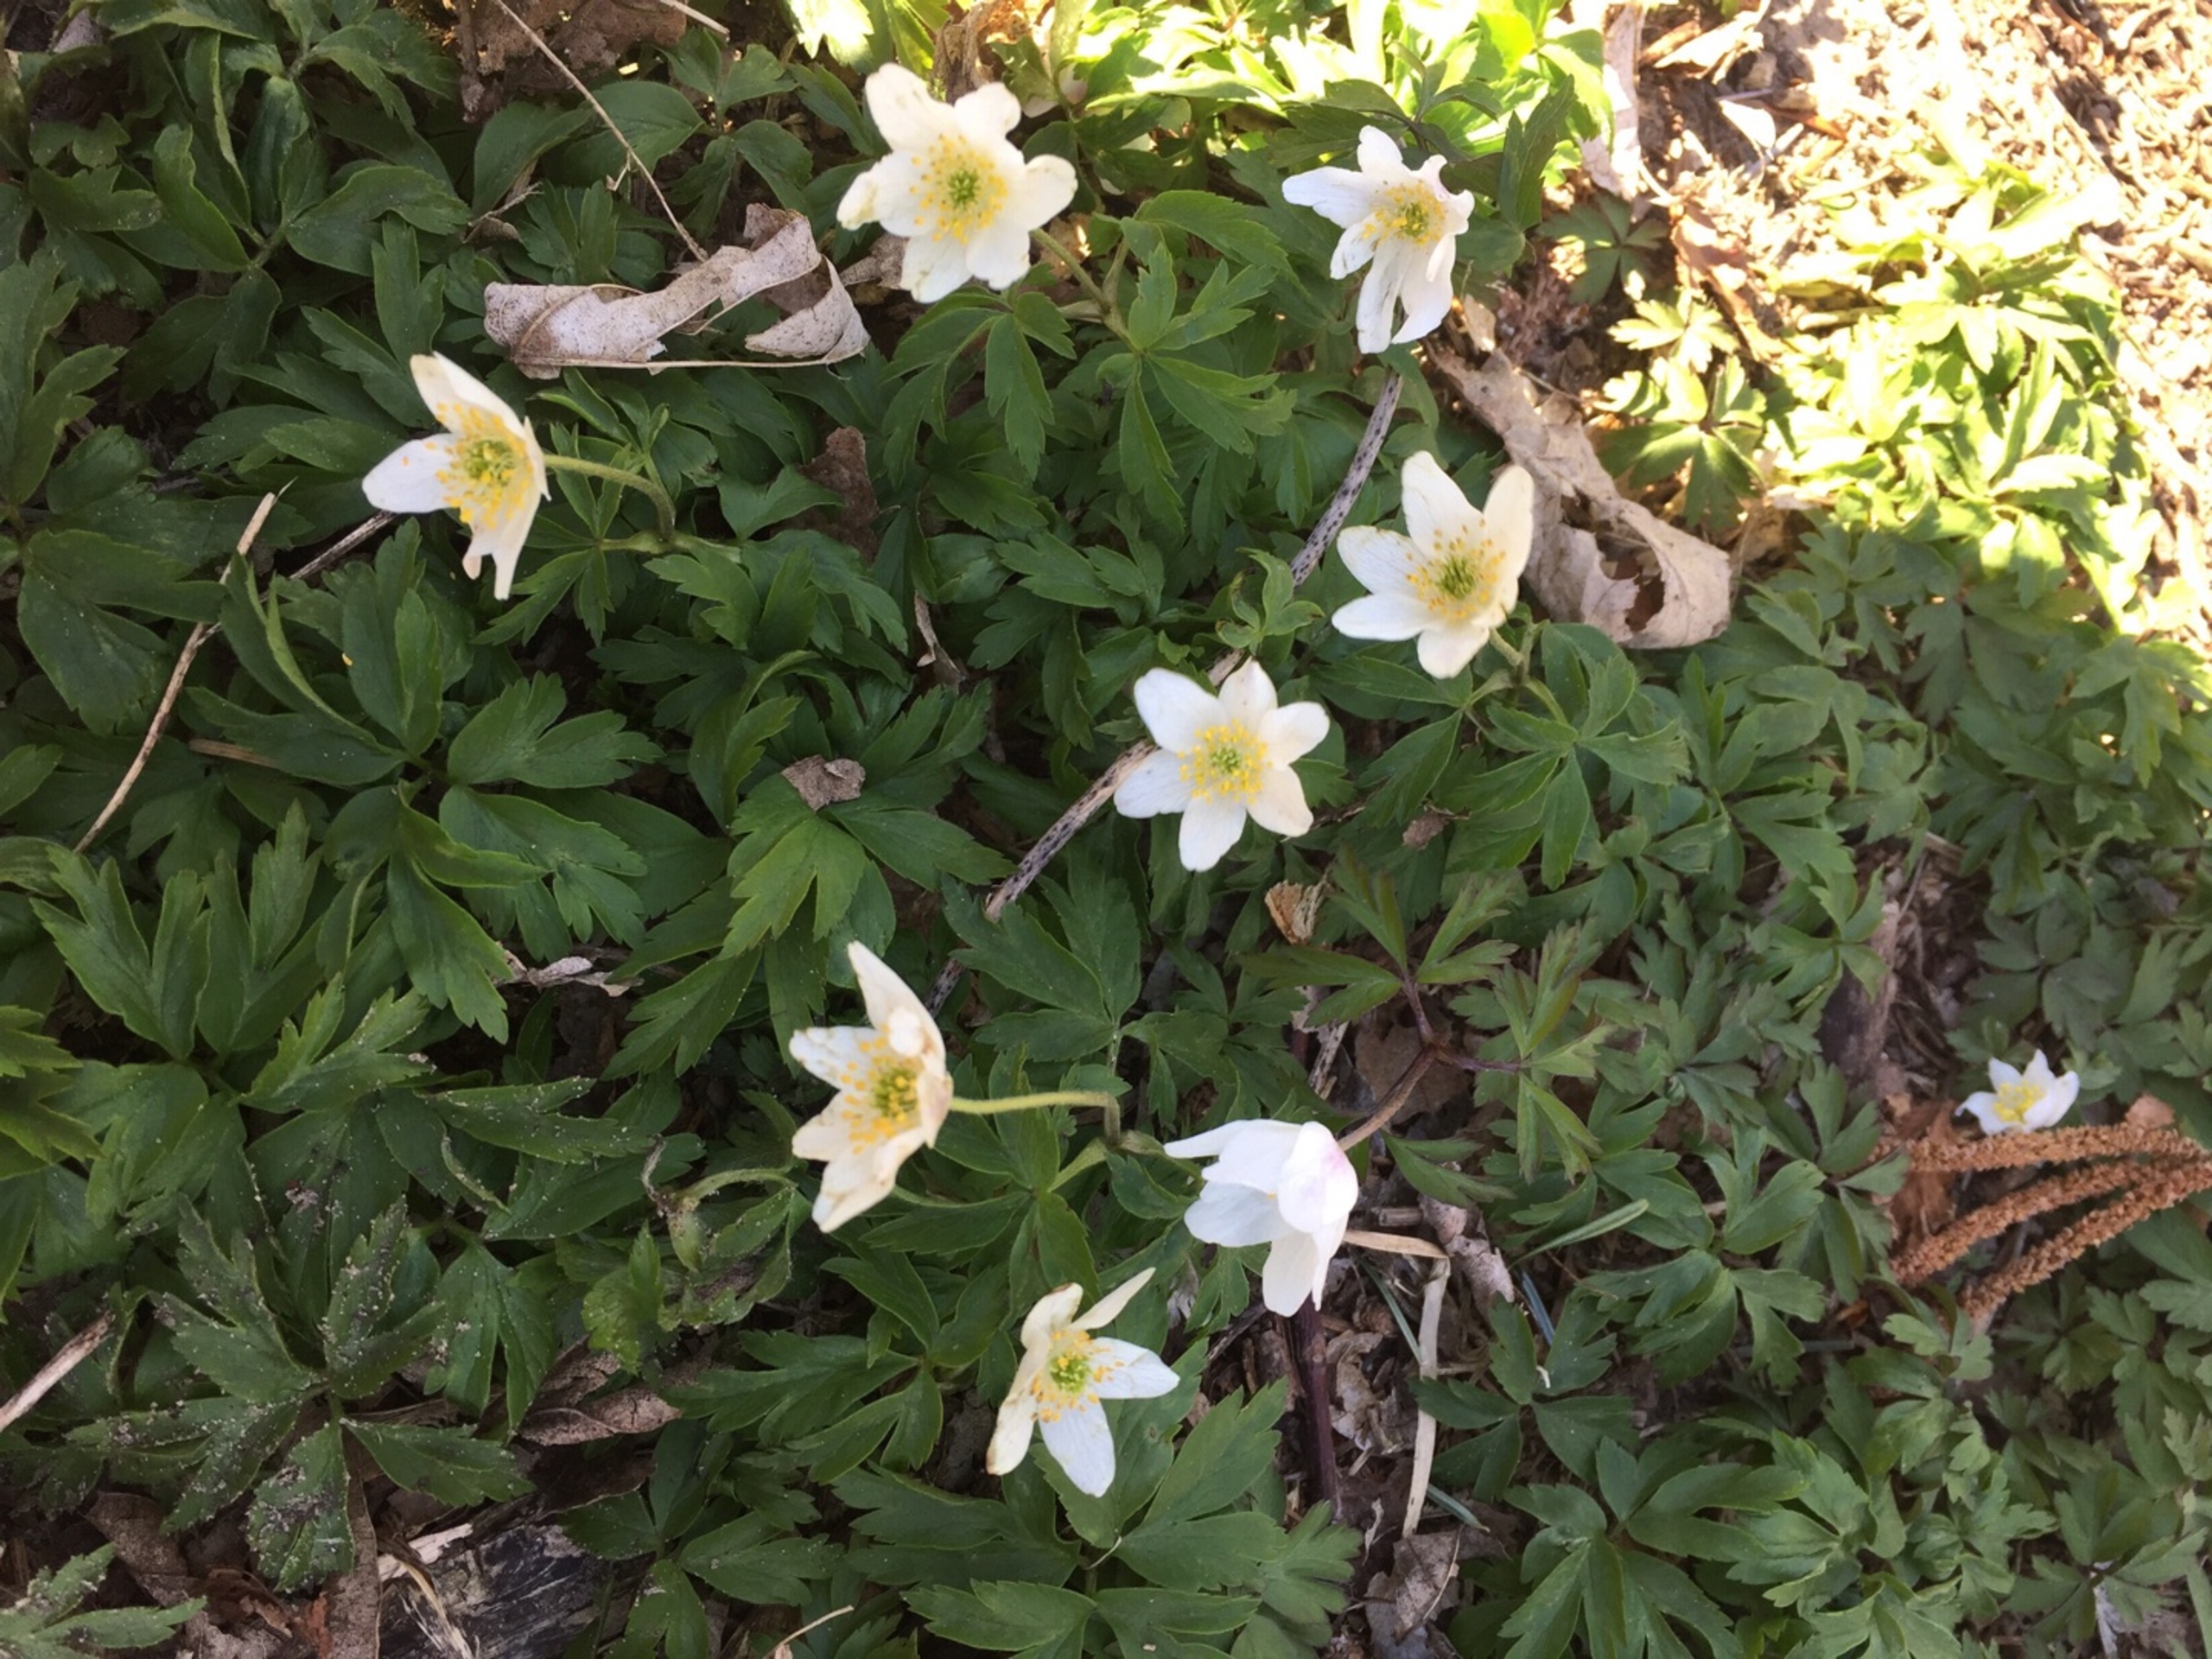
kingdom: Plantae
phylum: Tracheophyta
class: Magnoliopsida
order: Ranunculales
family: Ranunculaceae
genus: Anemone
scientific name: Anemone nemorosa
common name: Hvid anemone
